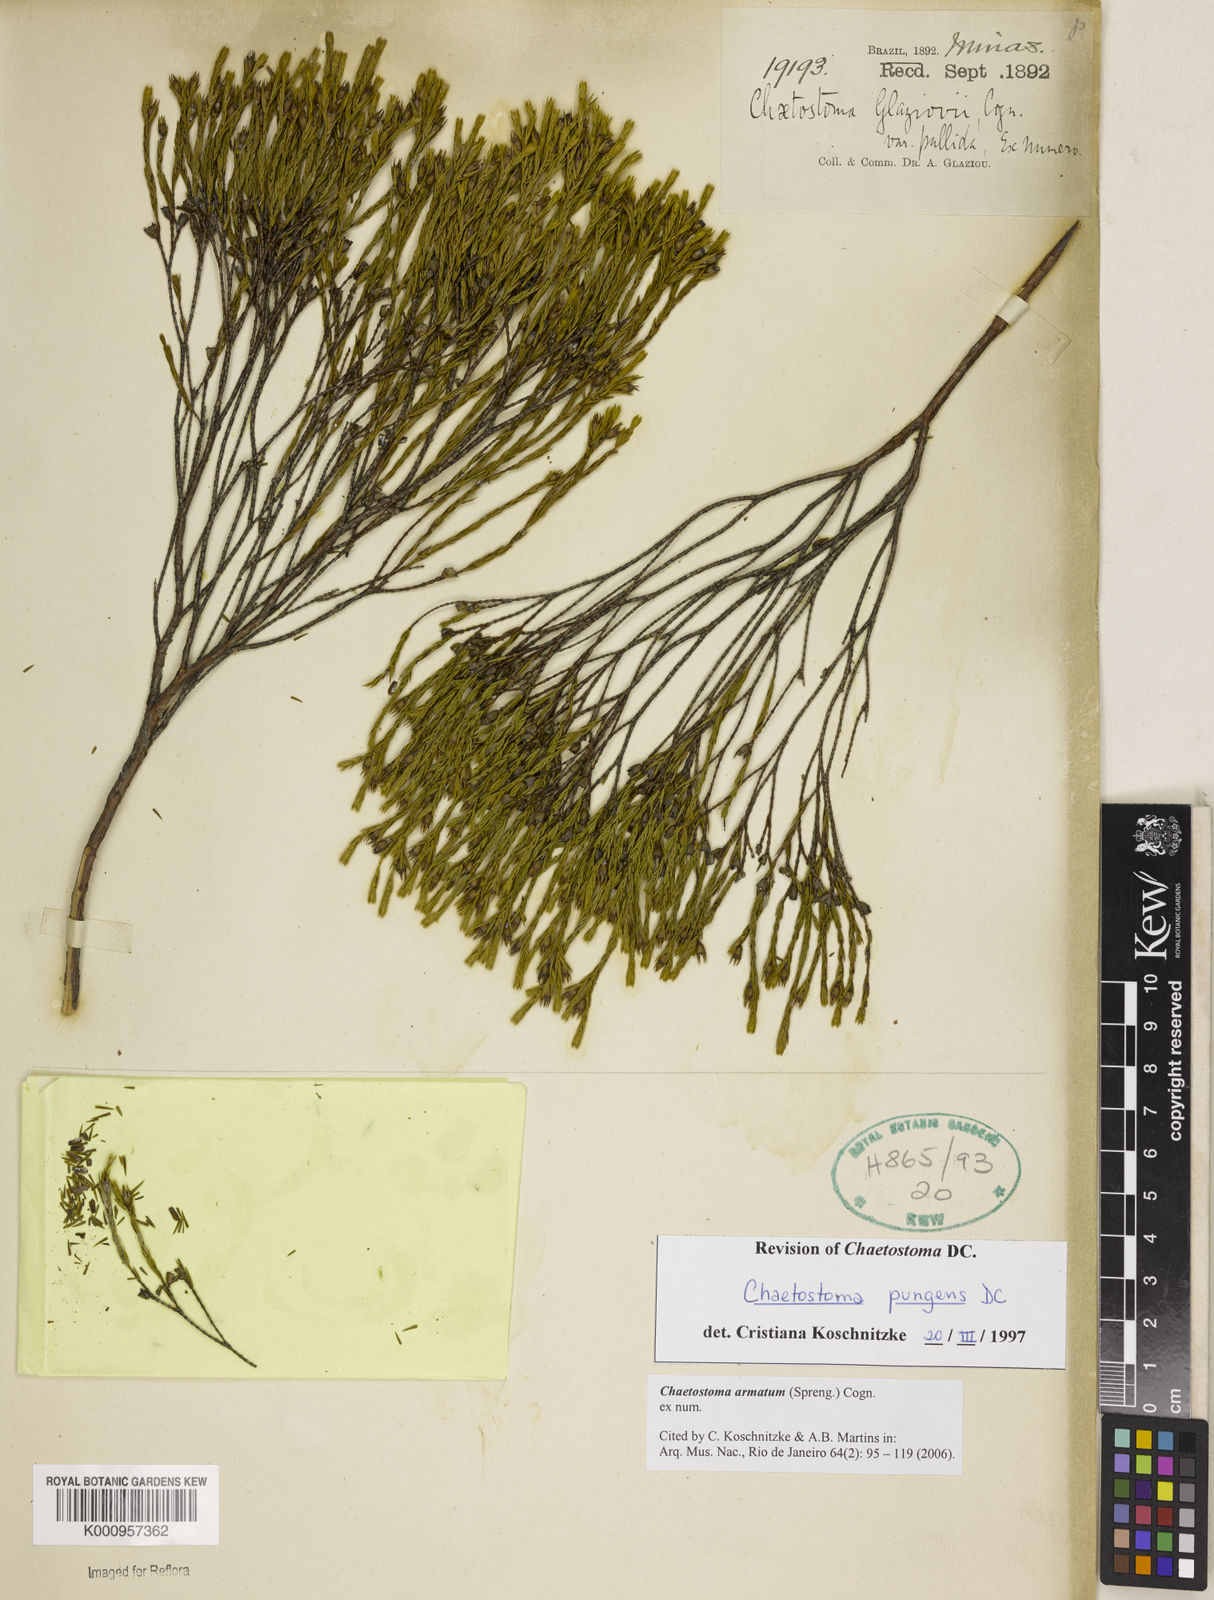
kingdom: Plantae
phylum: Tracheophyta
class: Magnoliopsida
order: Myrtales
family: Melastomataceae
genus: Microlicia
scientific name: Microlicia armata
